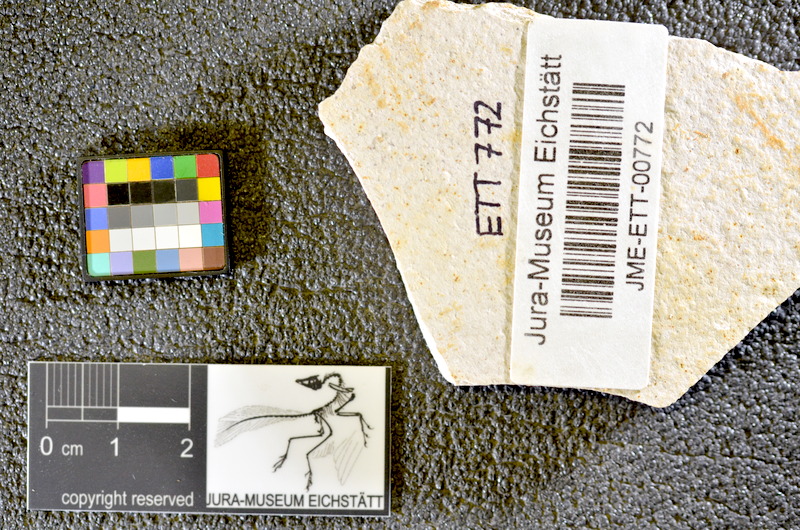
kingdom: Animalia
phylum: Chordata
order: Salmoniformes
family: Orthogonikleithridae
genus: Orthogonikleithrus
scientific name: Orthogonikleithrus hoelli
